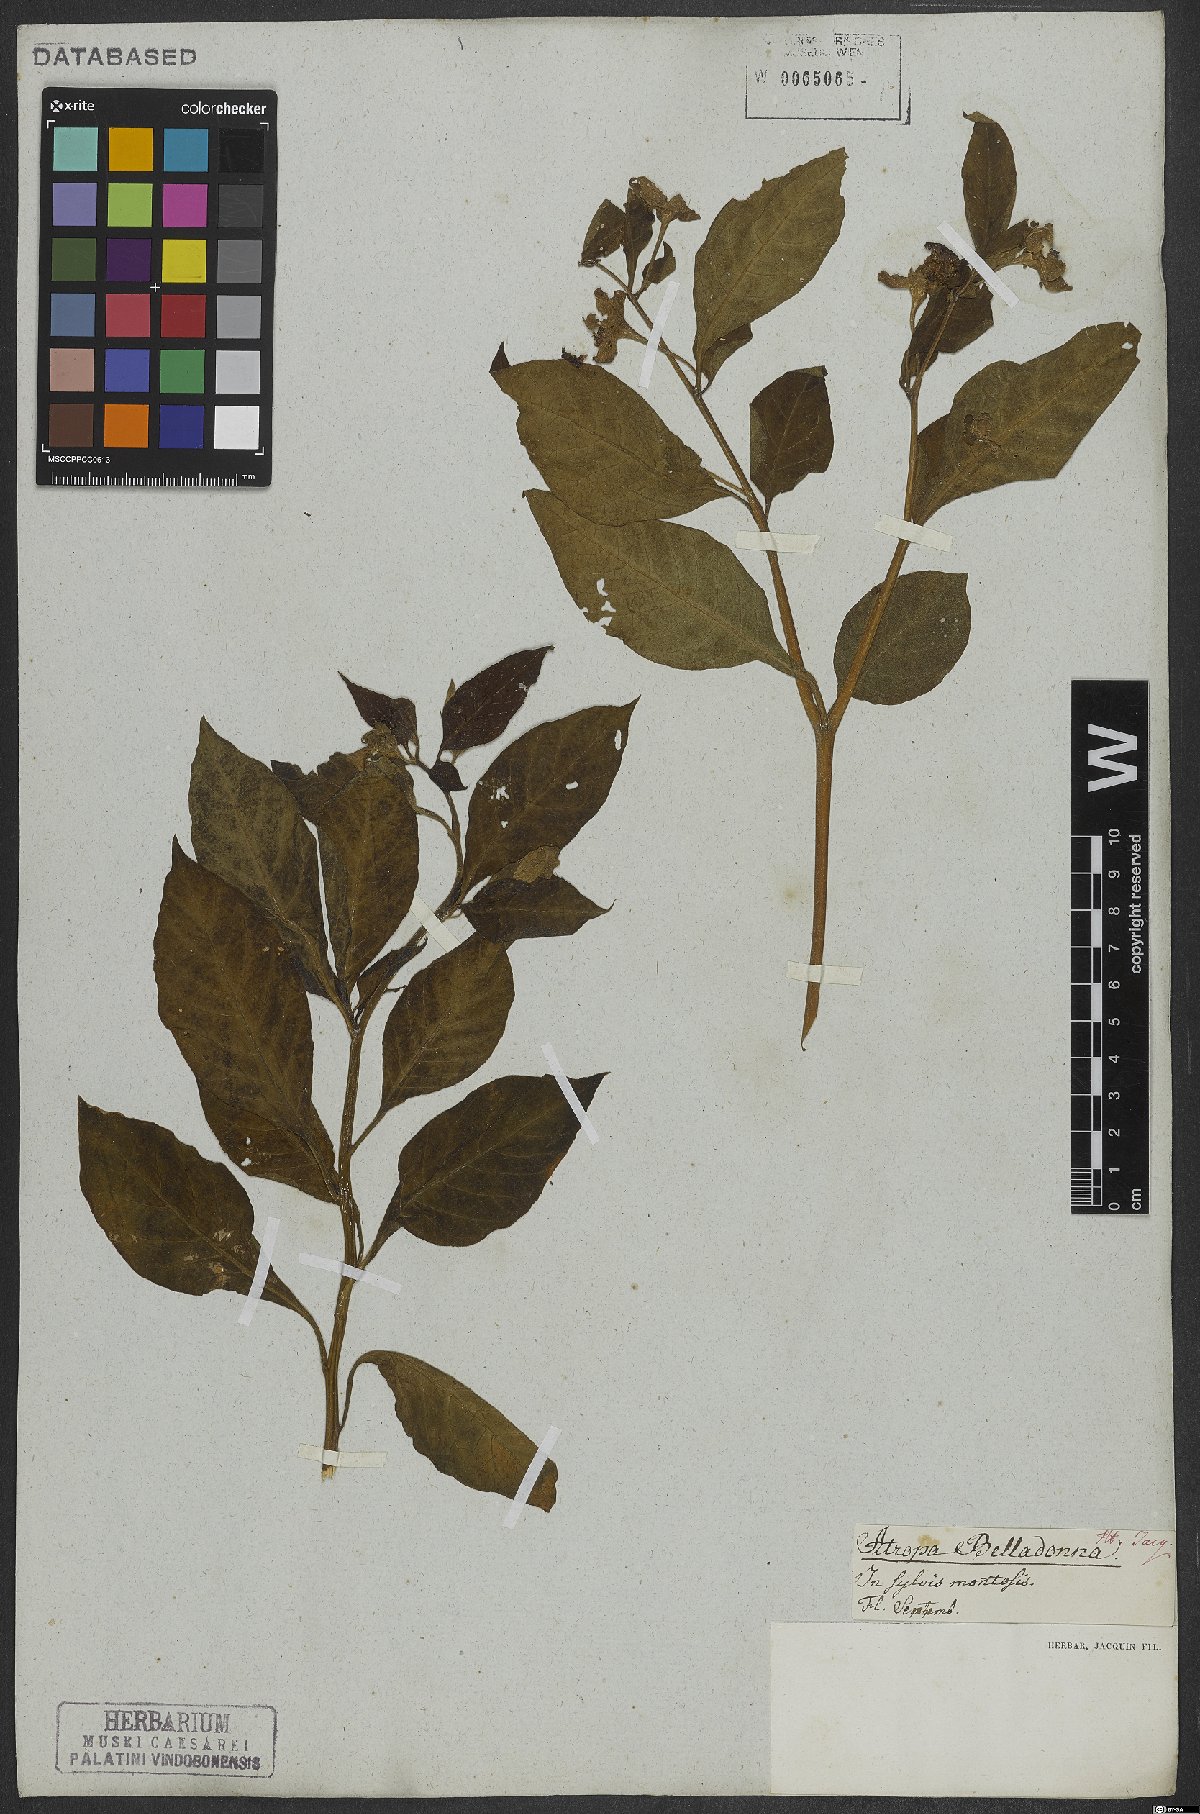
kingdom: Plantae
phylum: Tracheophyta
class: Magnoliopsida
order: Solanales
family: Solanaceae
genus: Atropa
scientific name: Atropa belladonna
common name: Deadly nightshade
